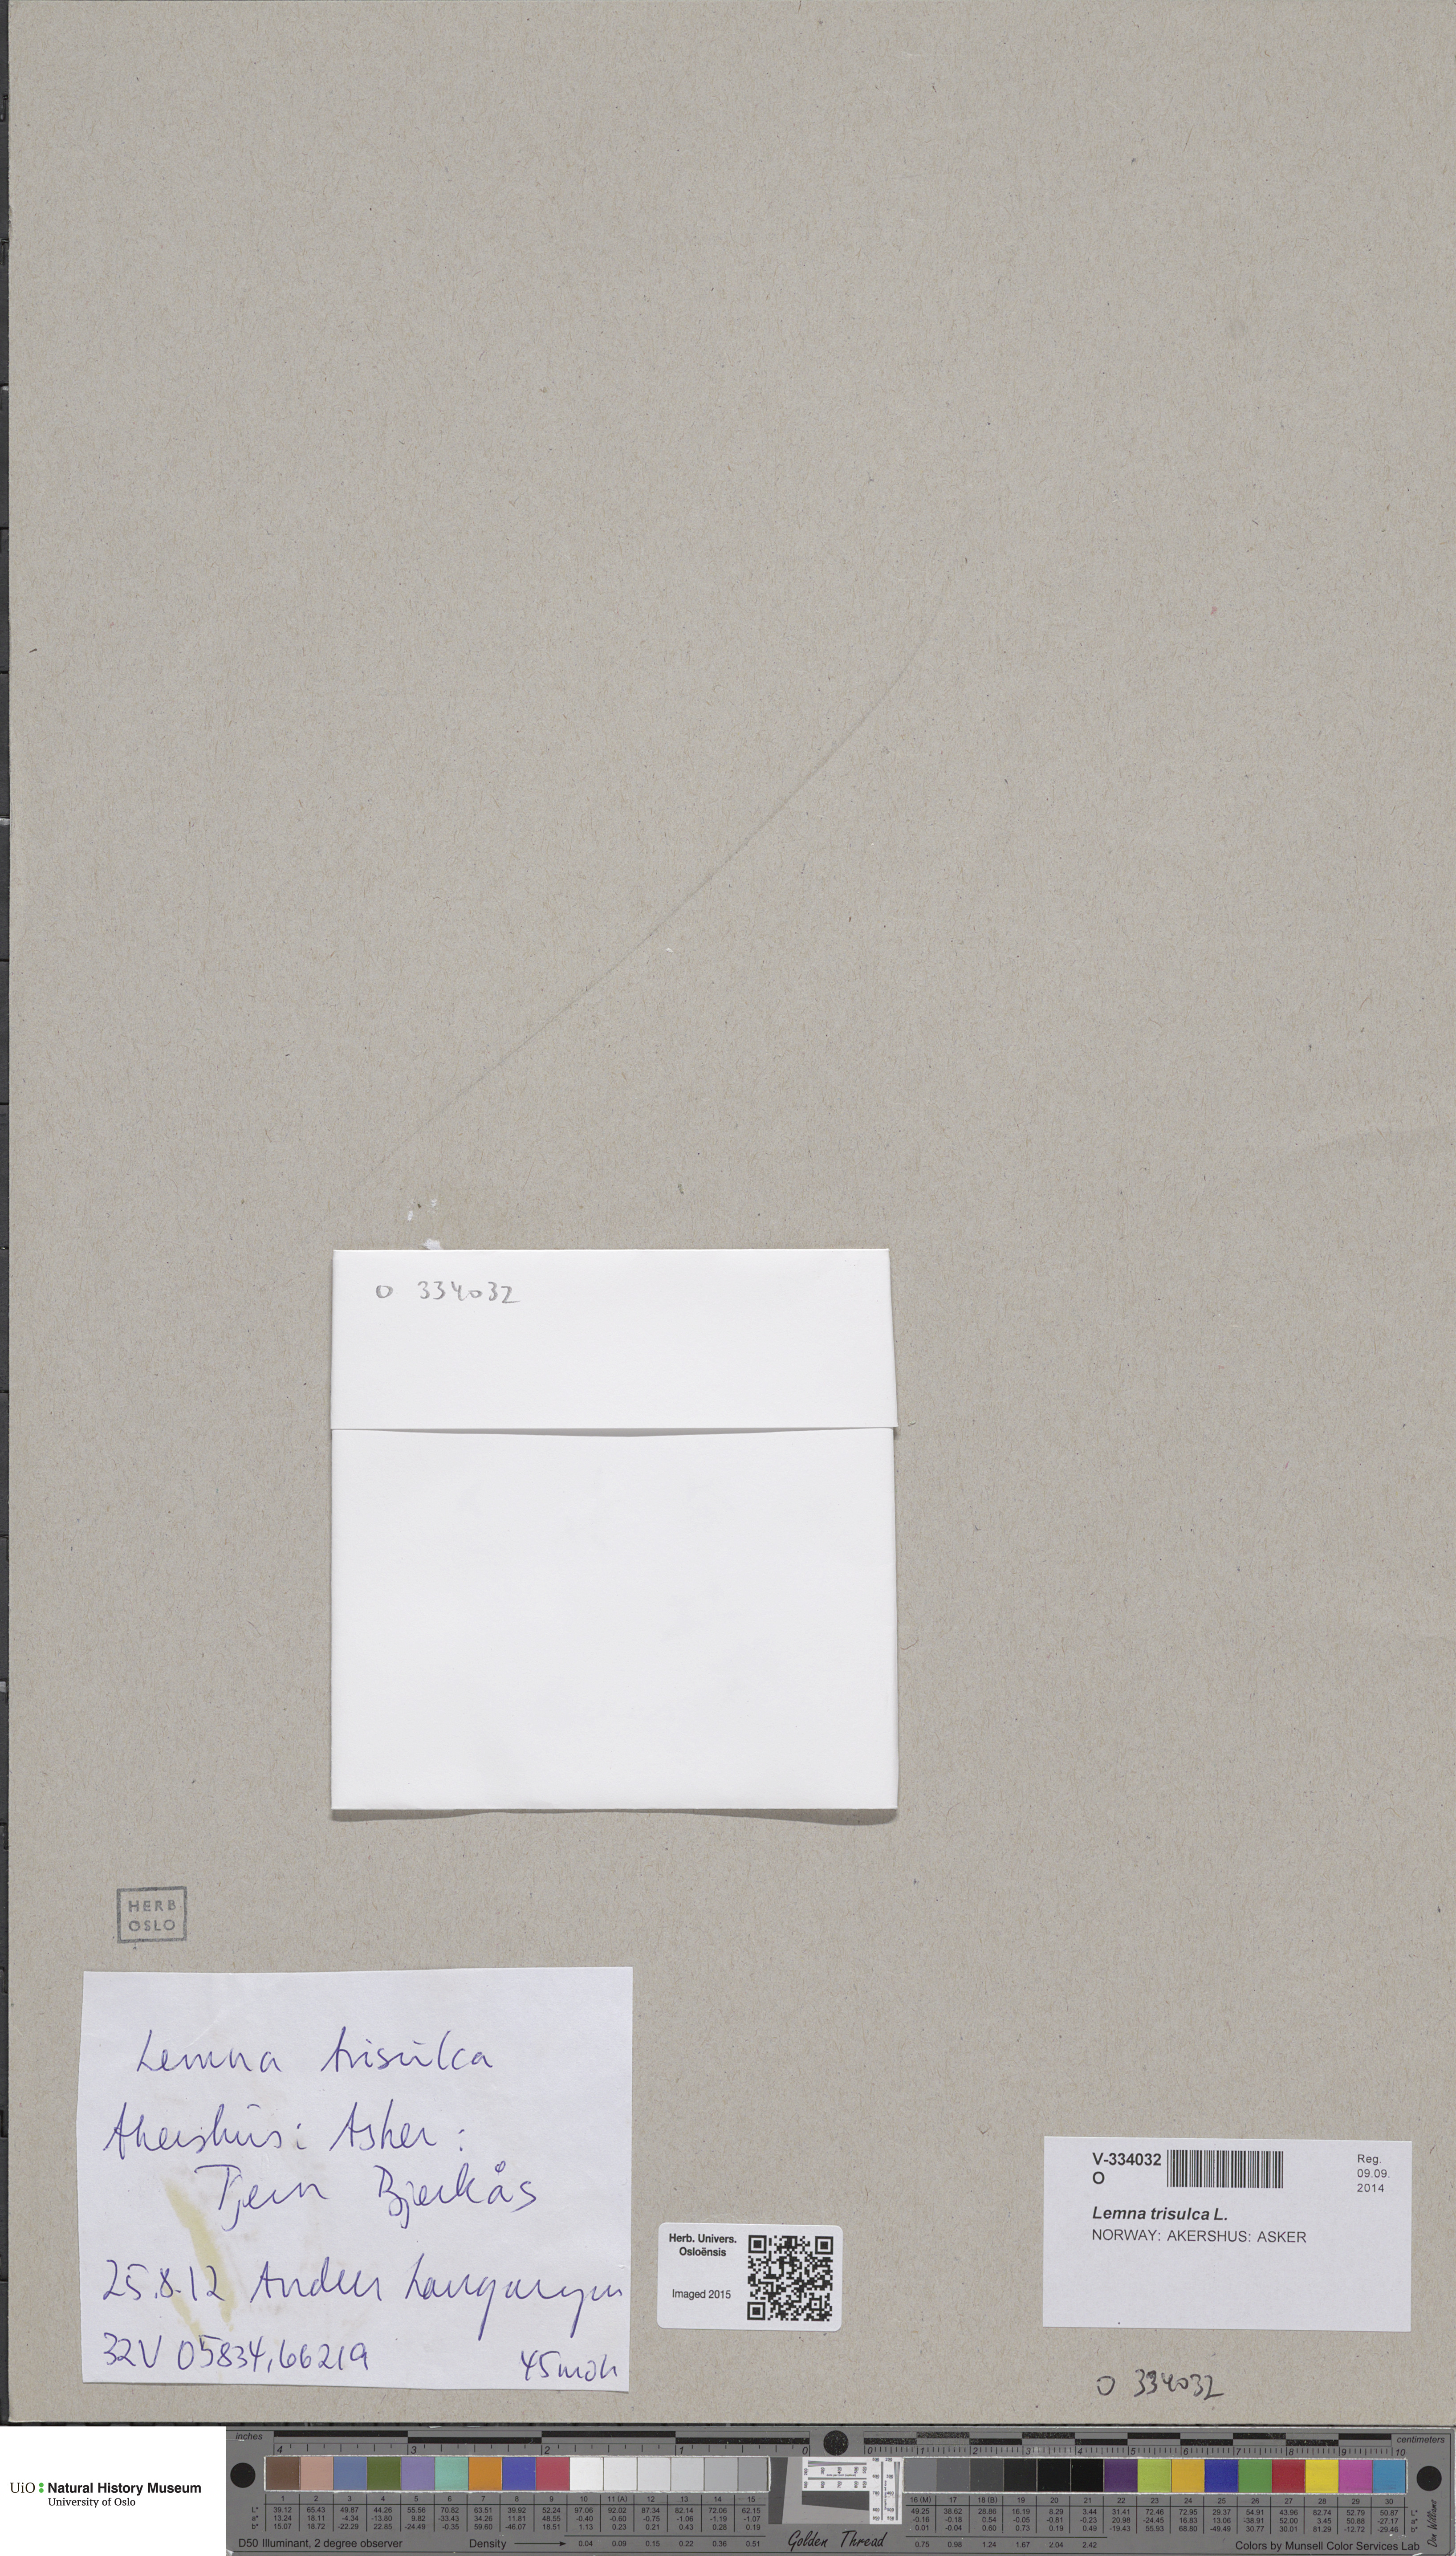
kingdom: Plantae
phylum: Tracheophyta
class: Liliopsida
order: Alismatales
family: Araceae
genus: Lemna
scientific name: Lemna trisulca
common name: Ivy-leaved duckweed
